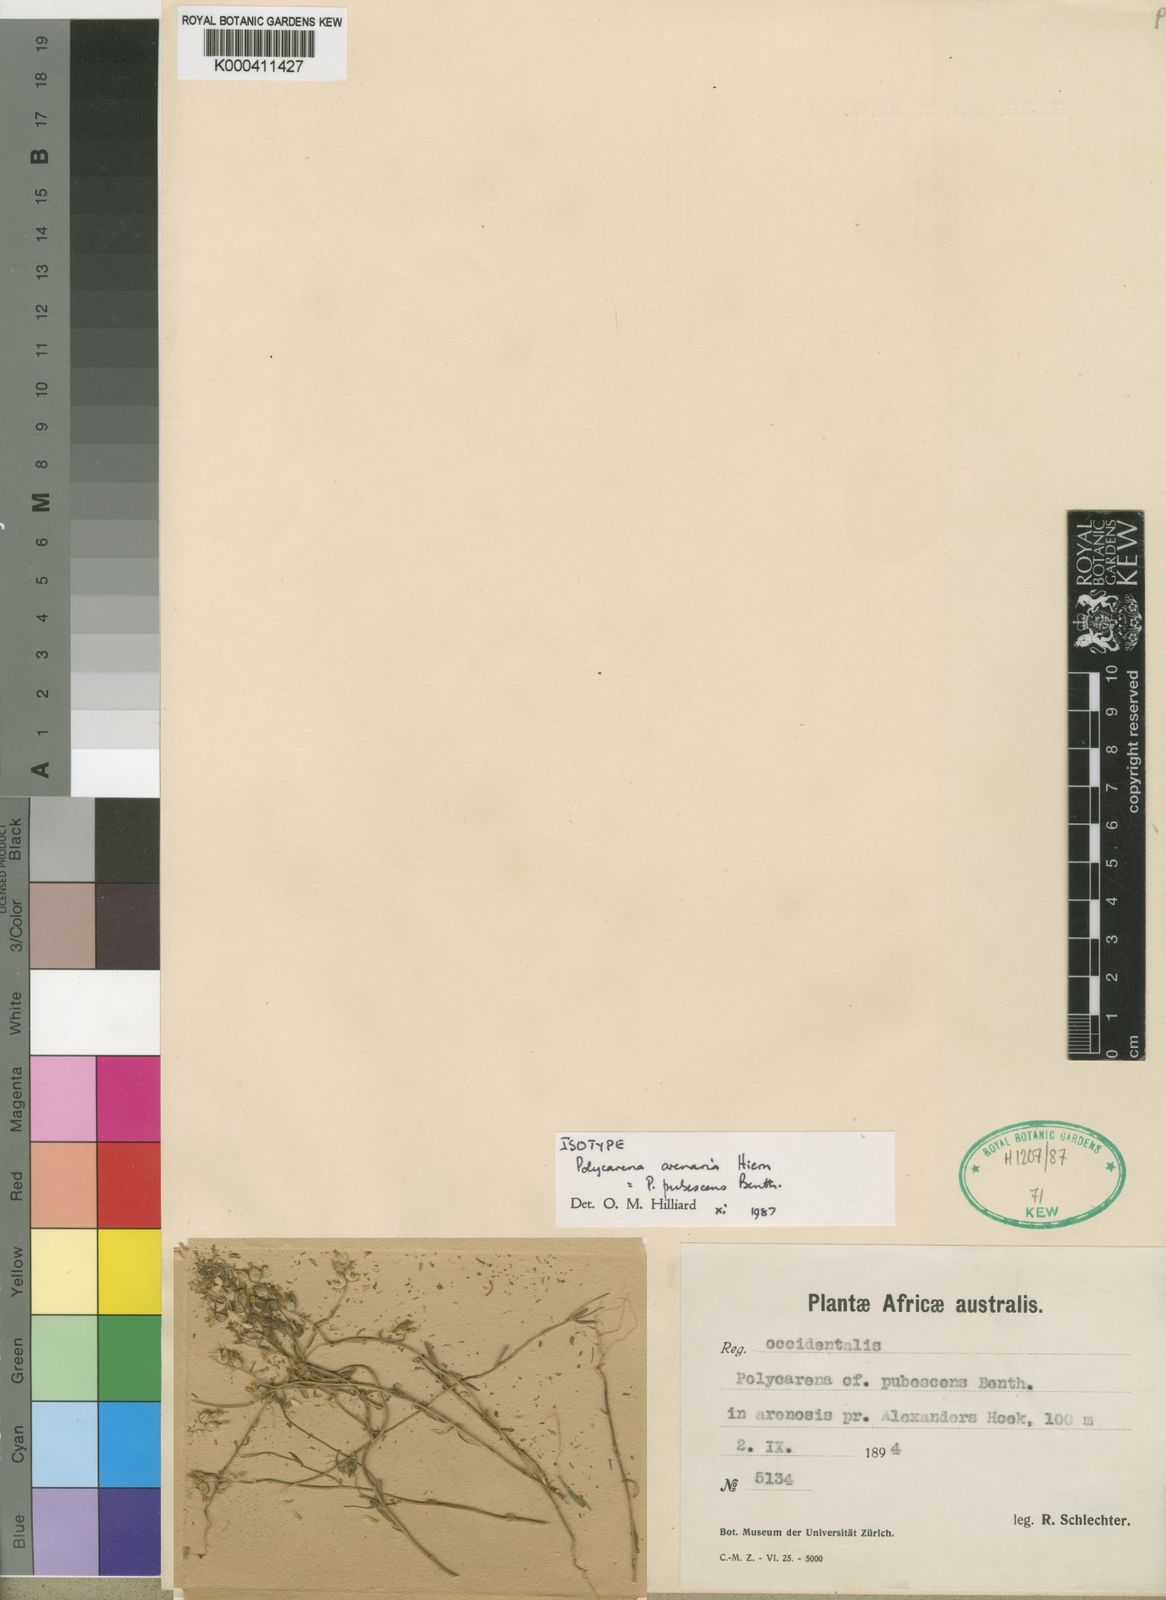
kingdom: Plantae
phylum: Tracheophyta
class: Magnoliopsida
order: Lamiales
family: Scrophulariaceae
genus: Polycarena
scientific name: Polycarena pubescens
